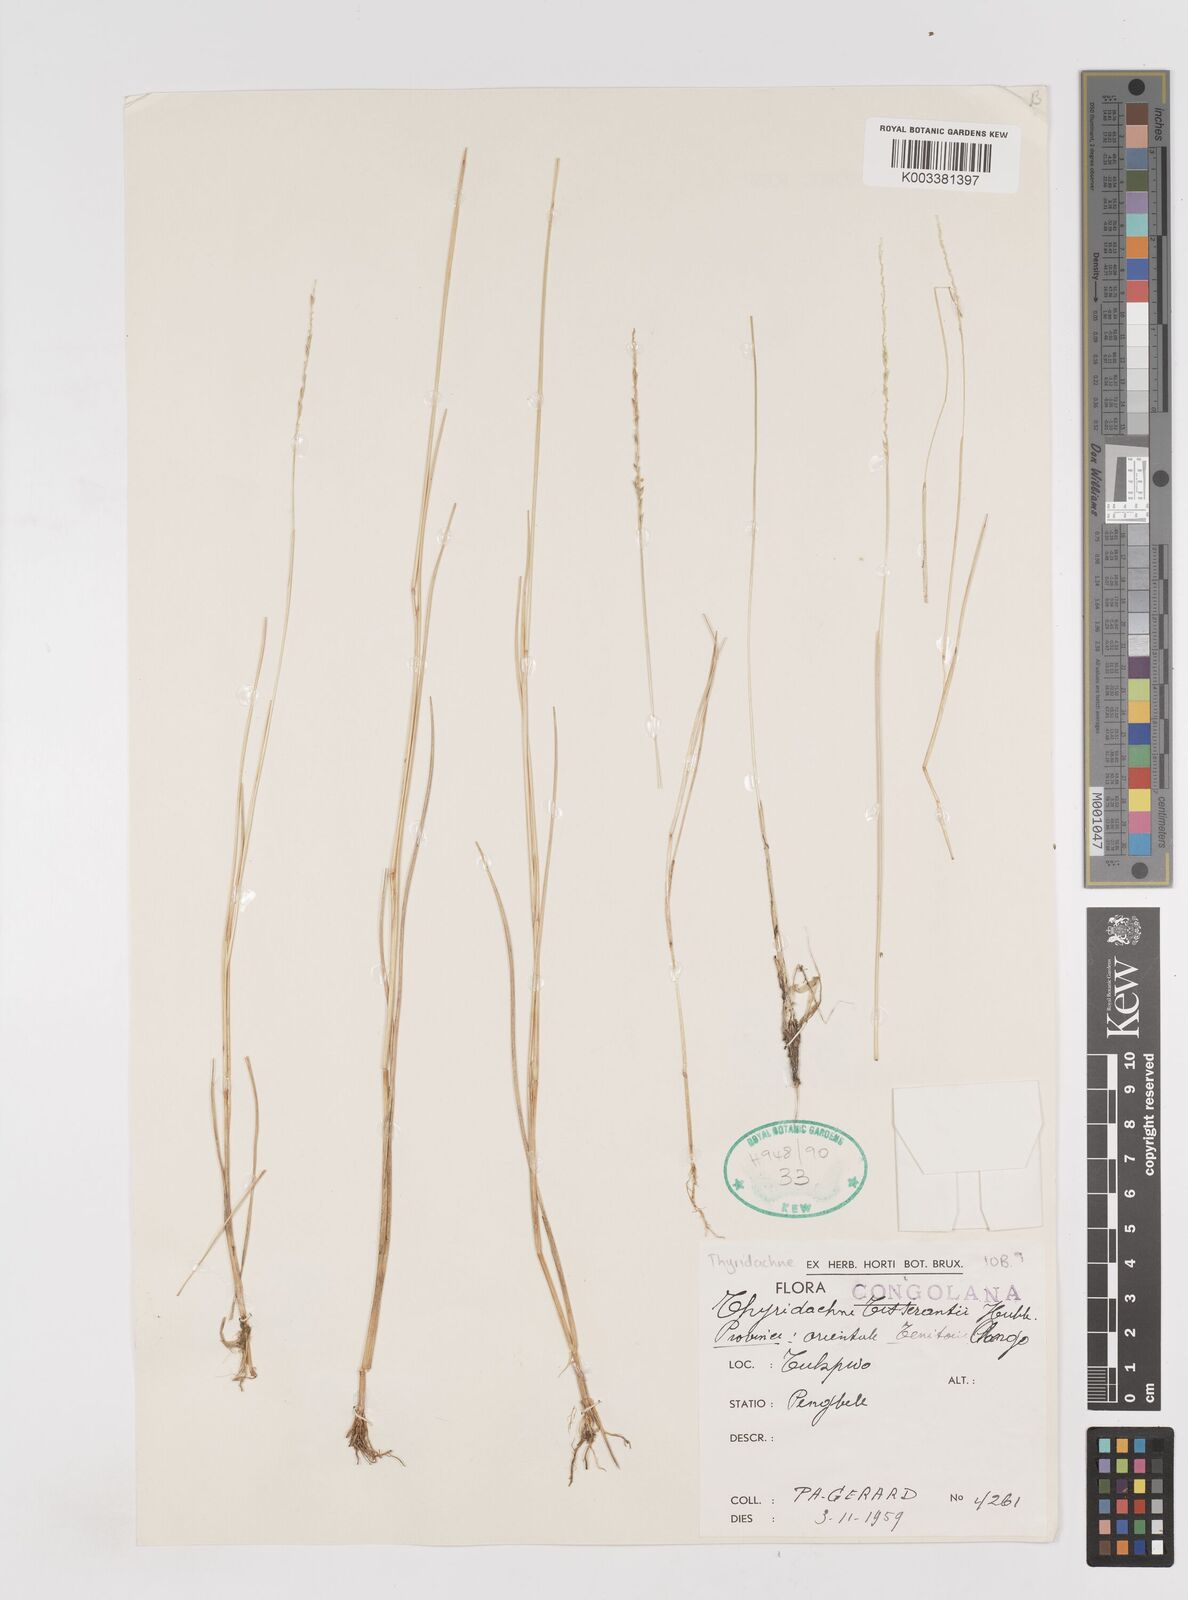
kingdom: Plantae
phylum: Tracheophyta
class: Liliopsida
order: Poales
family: Poaceae
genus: Thyridachne
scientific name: Thyridachne tisserantii
